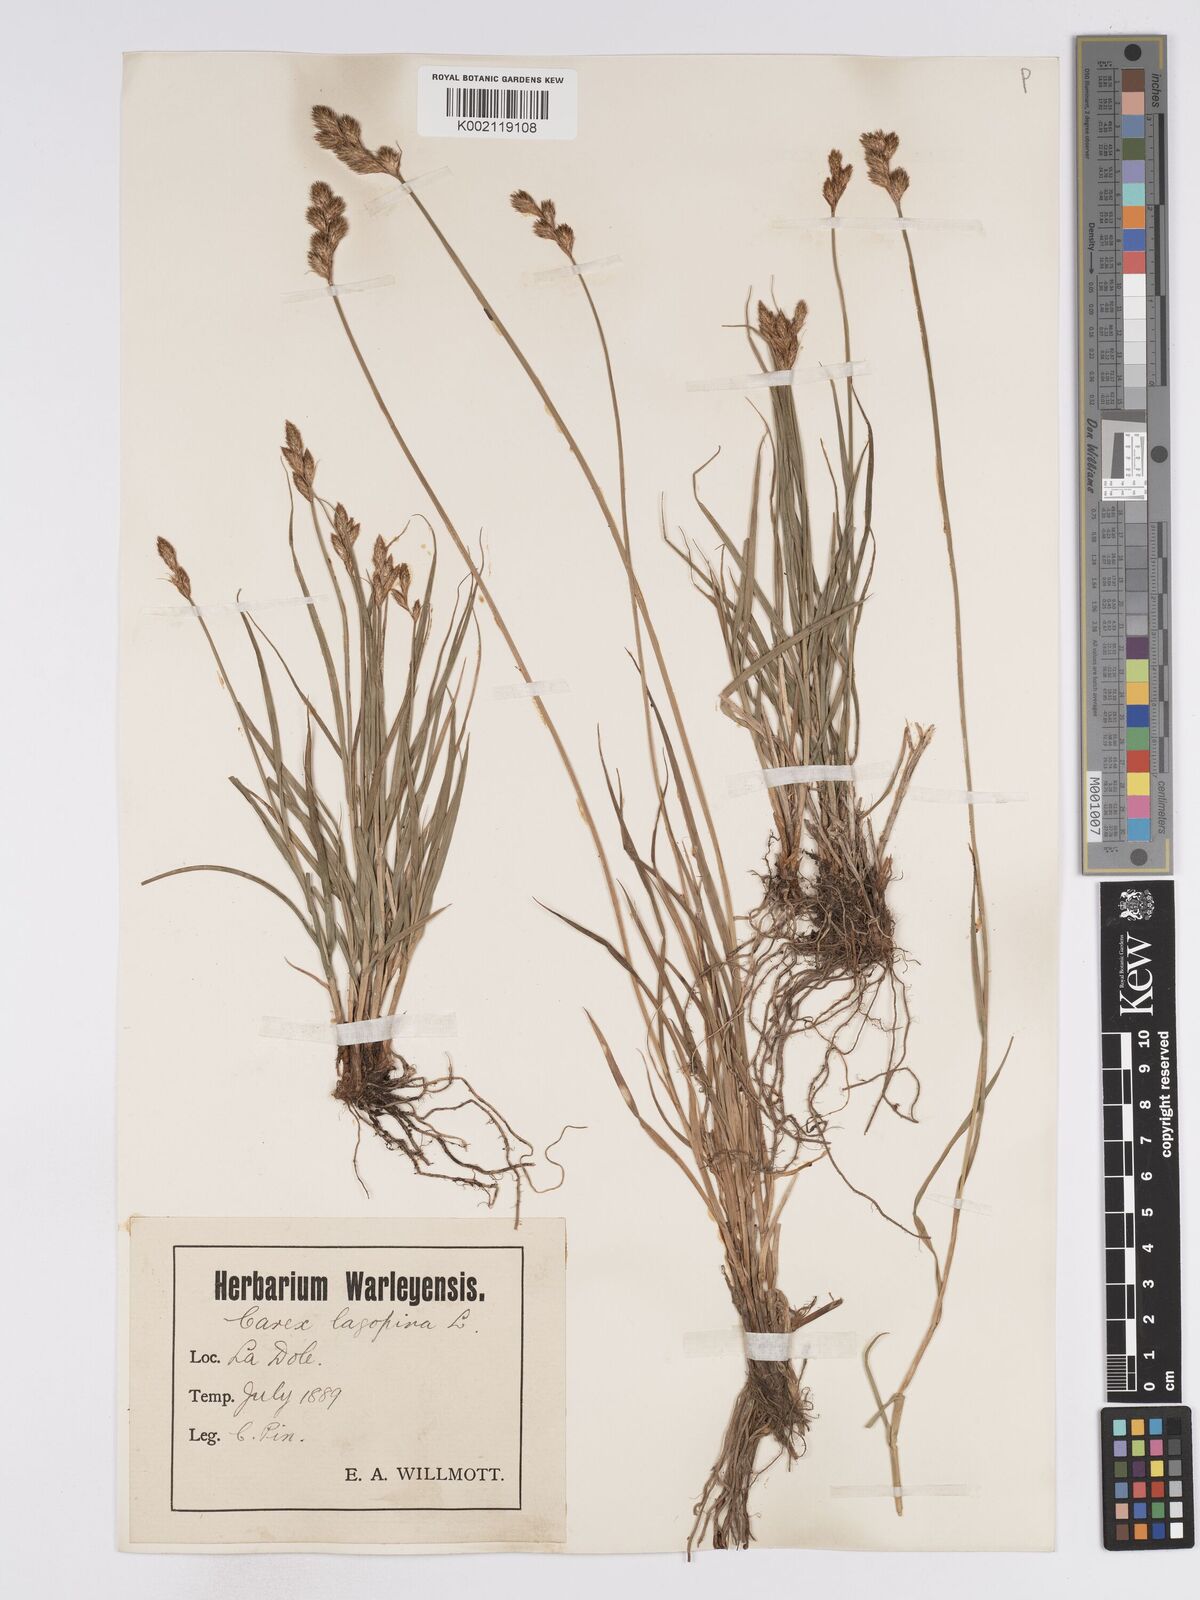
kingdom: Plantae
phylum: Tracheophyta
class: Liliopsida
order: Poales
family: Cyperaceae
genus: Carex
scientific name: Carex leporina
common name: Oval sedge
